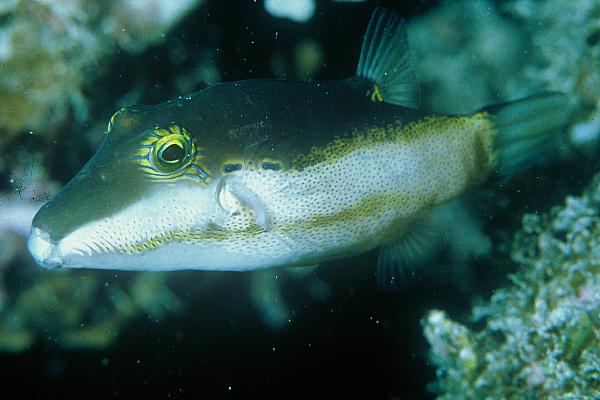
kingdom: Animalia
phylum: Chordata
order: Tetraodontiformes
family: Tetraodontidae
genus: Canthigaster
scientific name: Canthigaster smithae
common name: Bicolored toby
